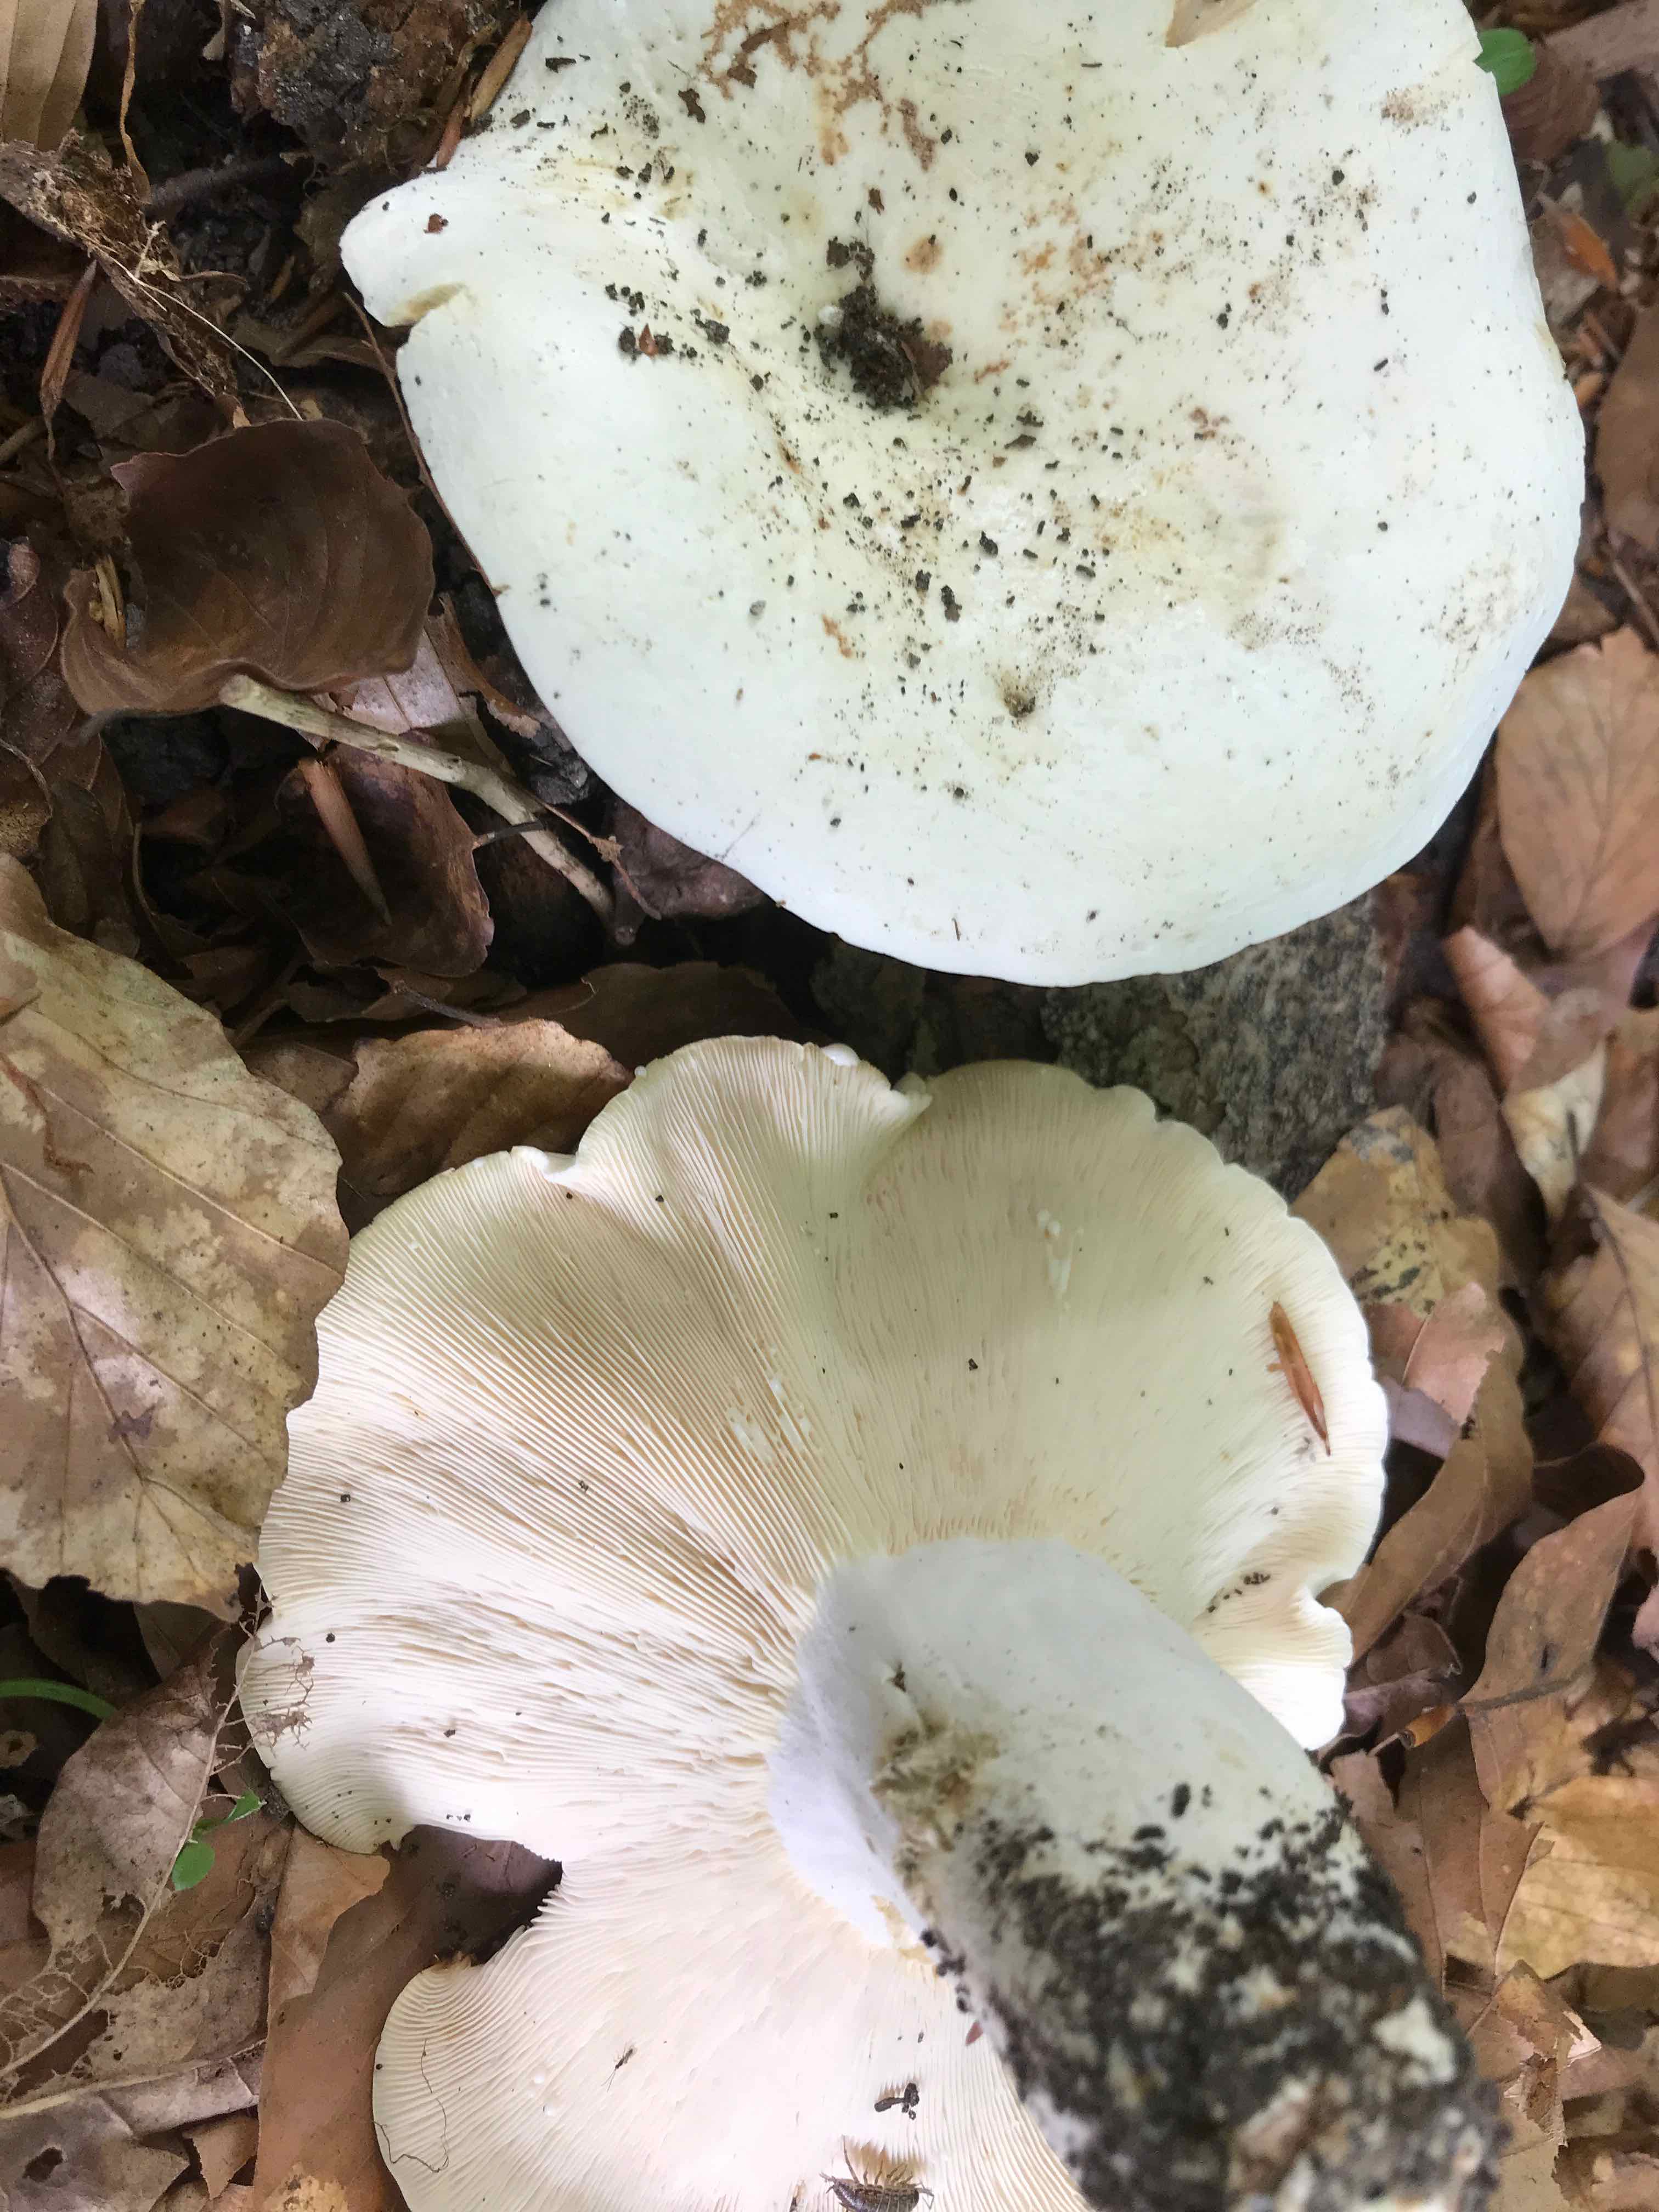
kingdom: Fungi
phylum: Basidiomycota
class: Agaricomycetes
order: Russulales
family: Russulaceae
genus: Lactifluus
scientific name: Lactifluus piperatus
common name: peber-mælkehat
